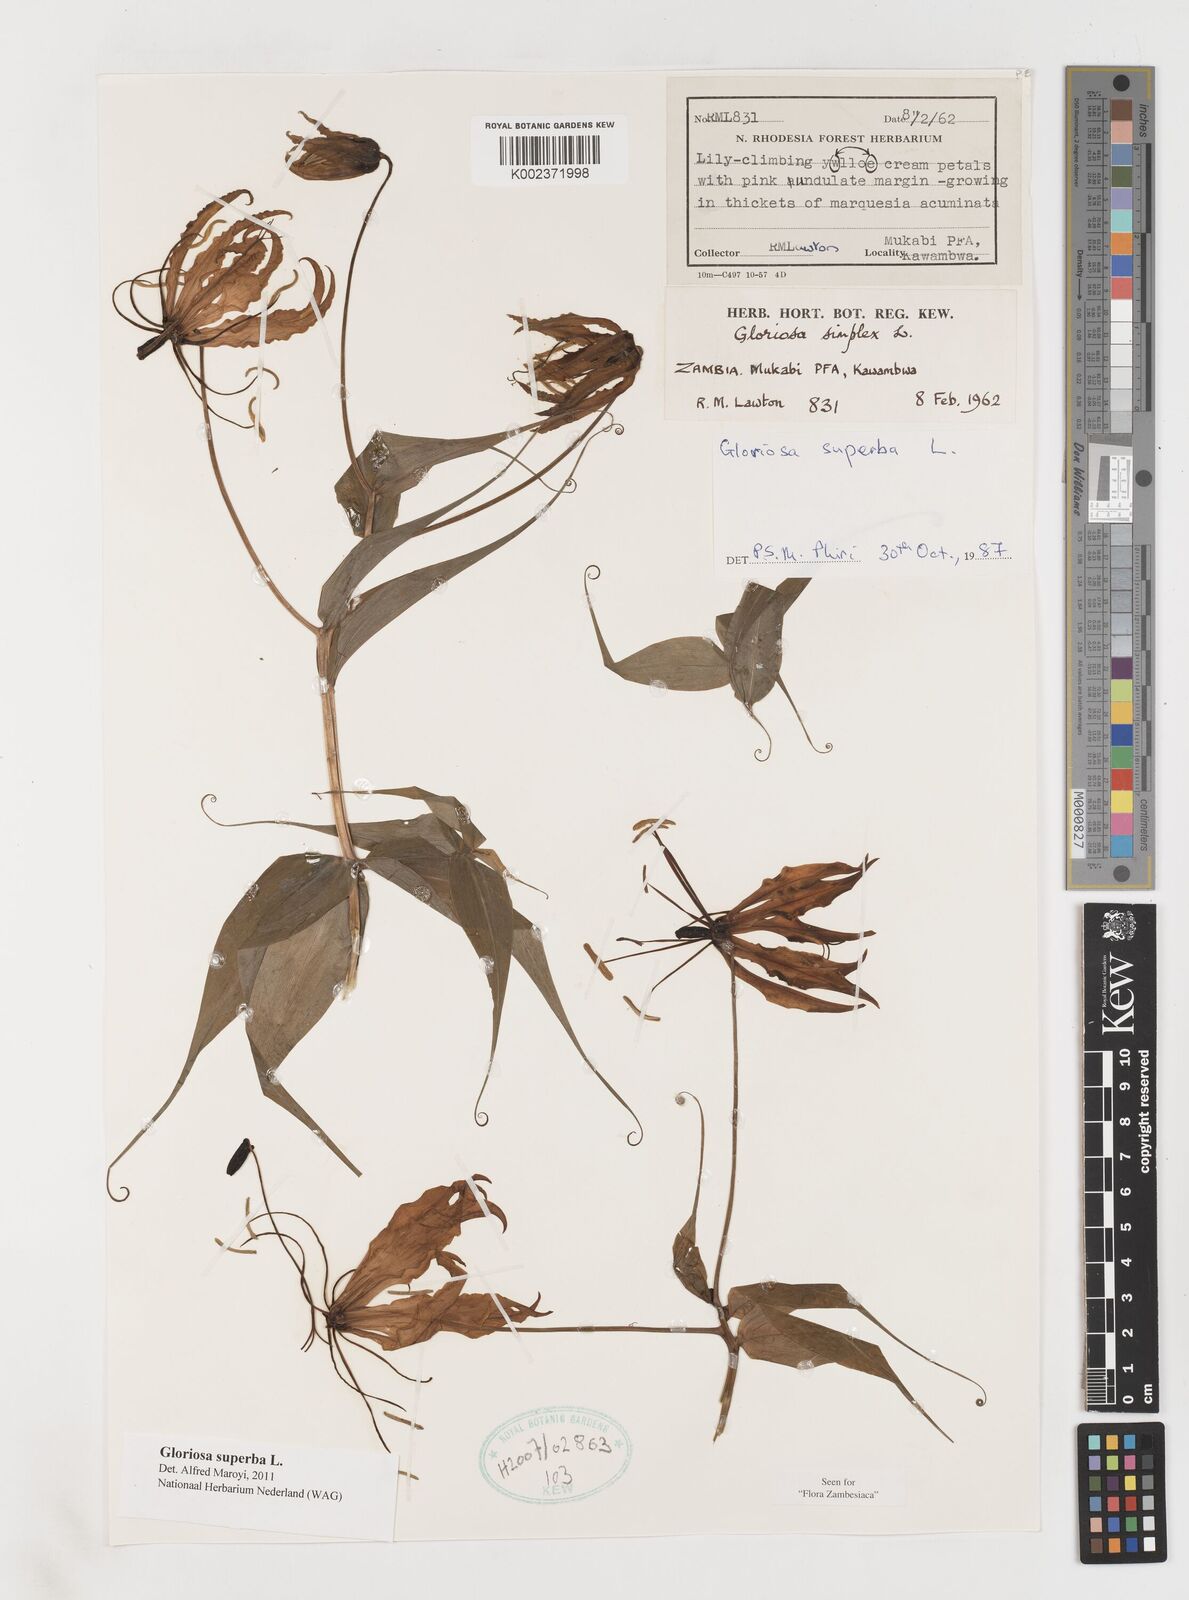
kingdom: Plantae
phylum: Tracheophyta
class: Liliopsida
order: Liliales
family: Colchicaceae
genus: Gloriosa
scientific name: Gloriosa superba
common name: Flame lily
